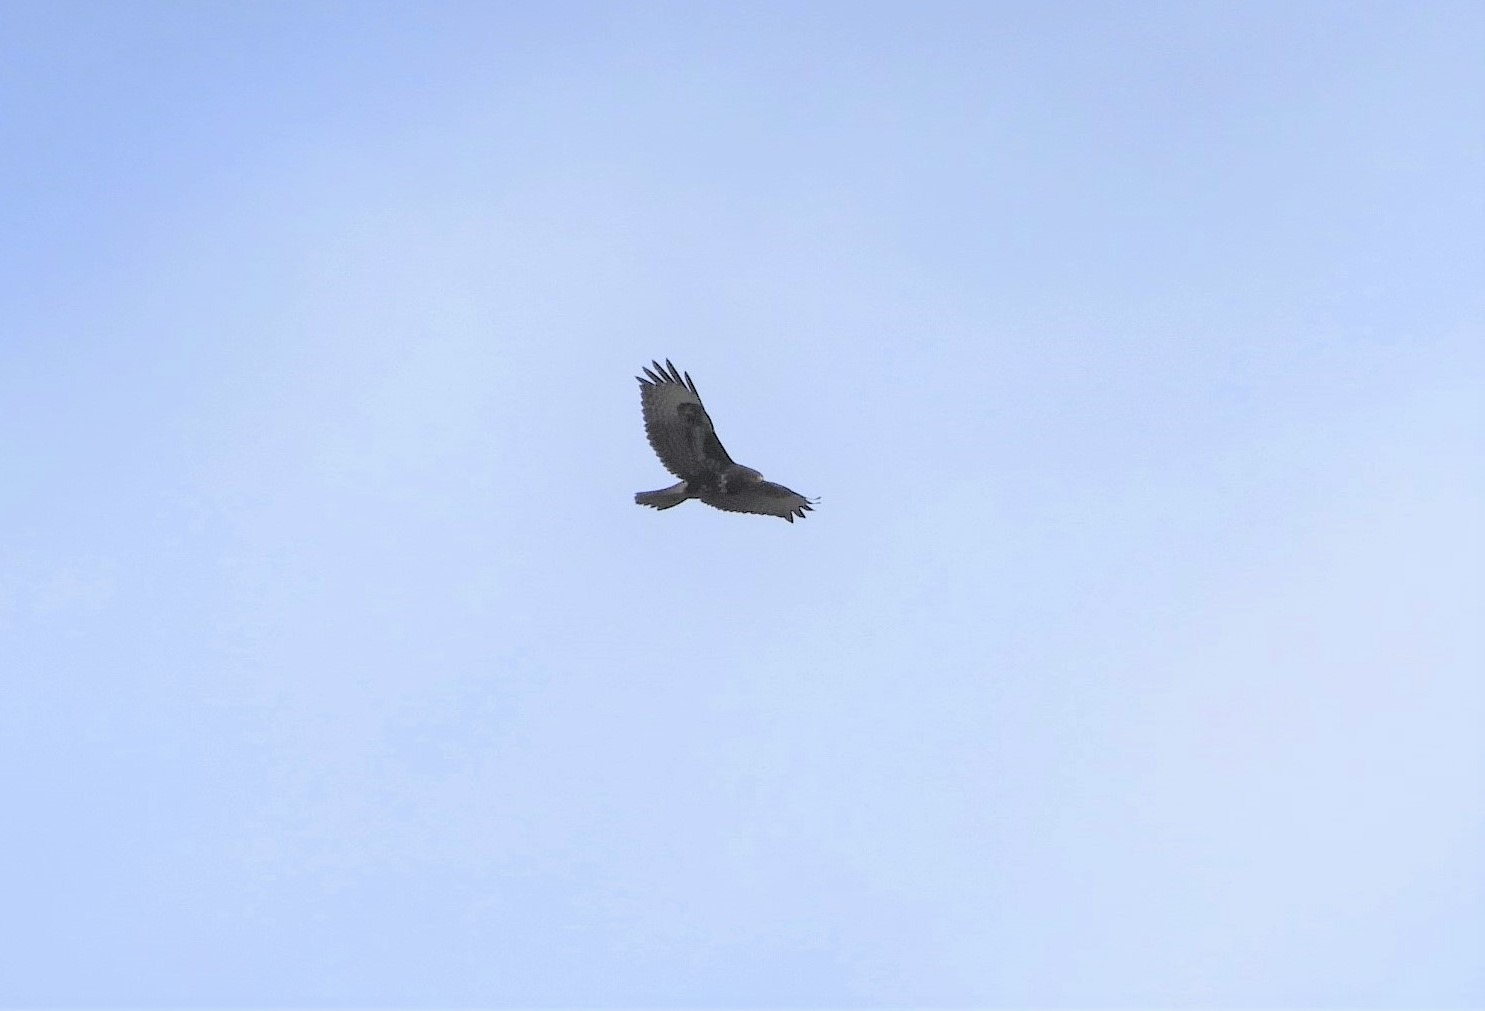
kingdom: Animalia
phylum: Chordata
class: Aves
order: Accipitriformes
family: Accipitridae
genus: Buteo
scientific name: Buteo buteo
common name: Musvåge
